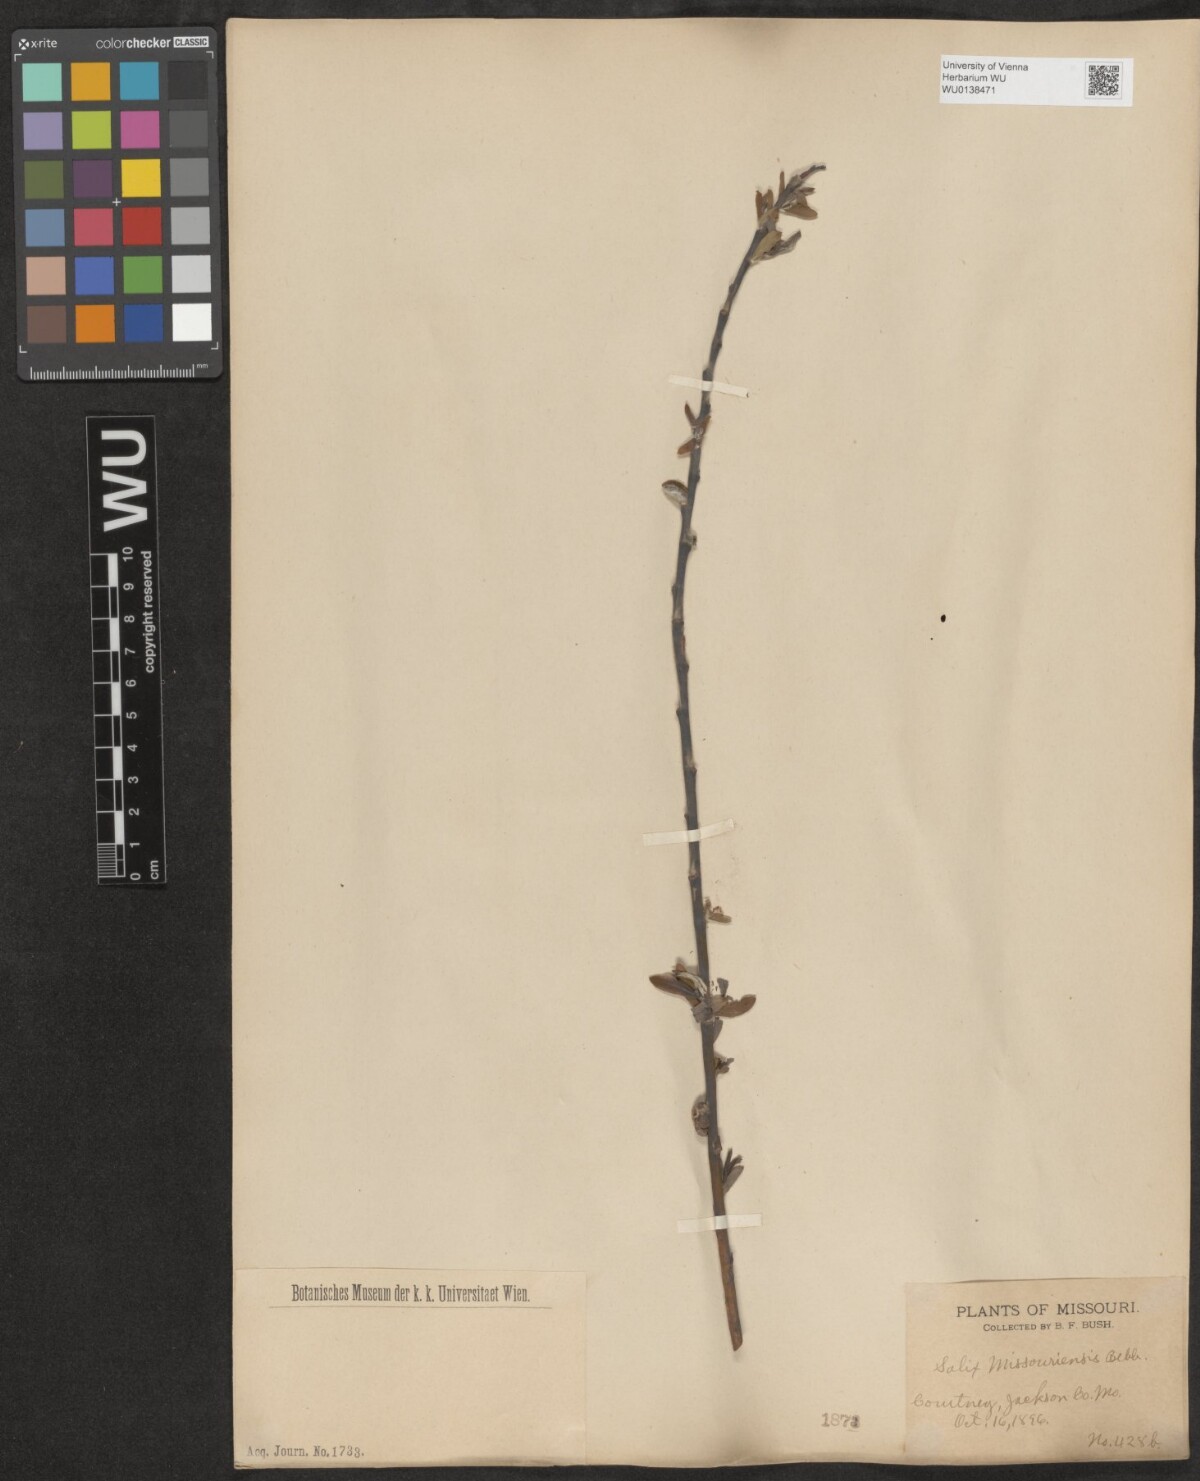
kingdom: Plantae
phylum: Tracheophyta
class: Magnoliopsida
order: Malpighiales
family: Salicaceae
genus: Salix
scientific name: Salix eriocephala
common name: Heart-leaved willow
